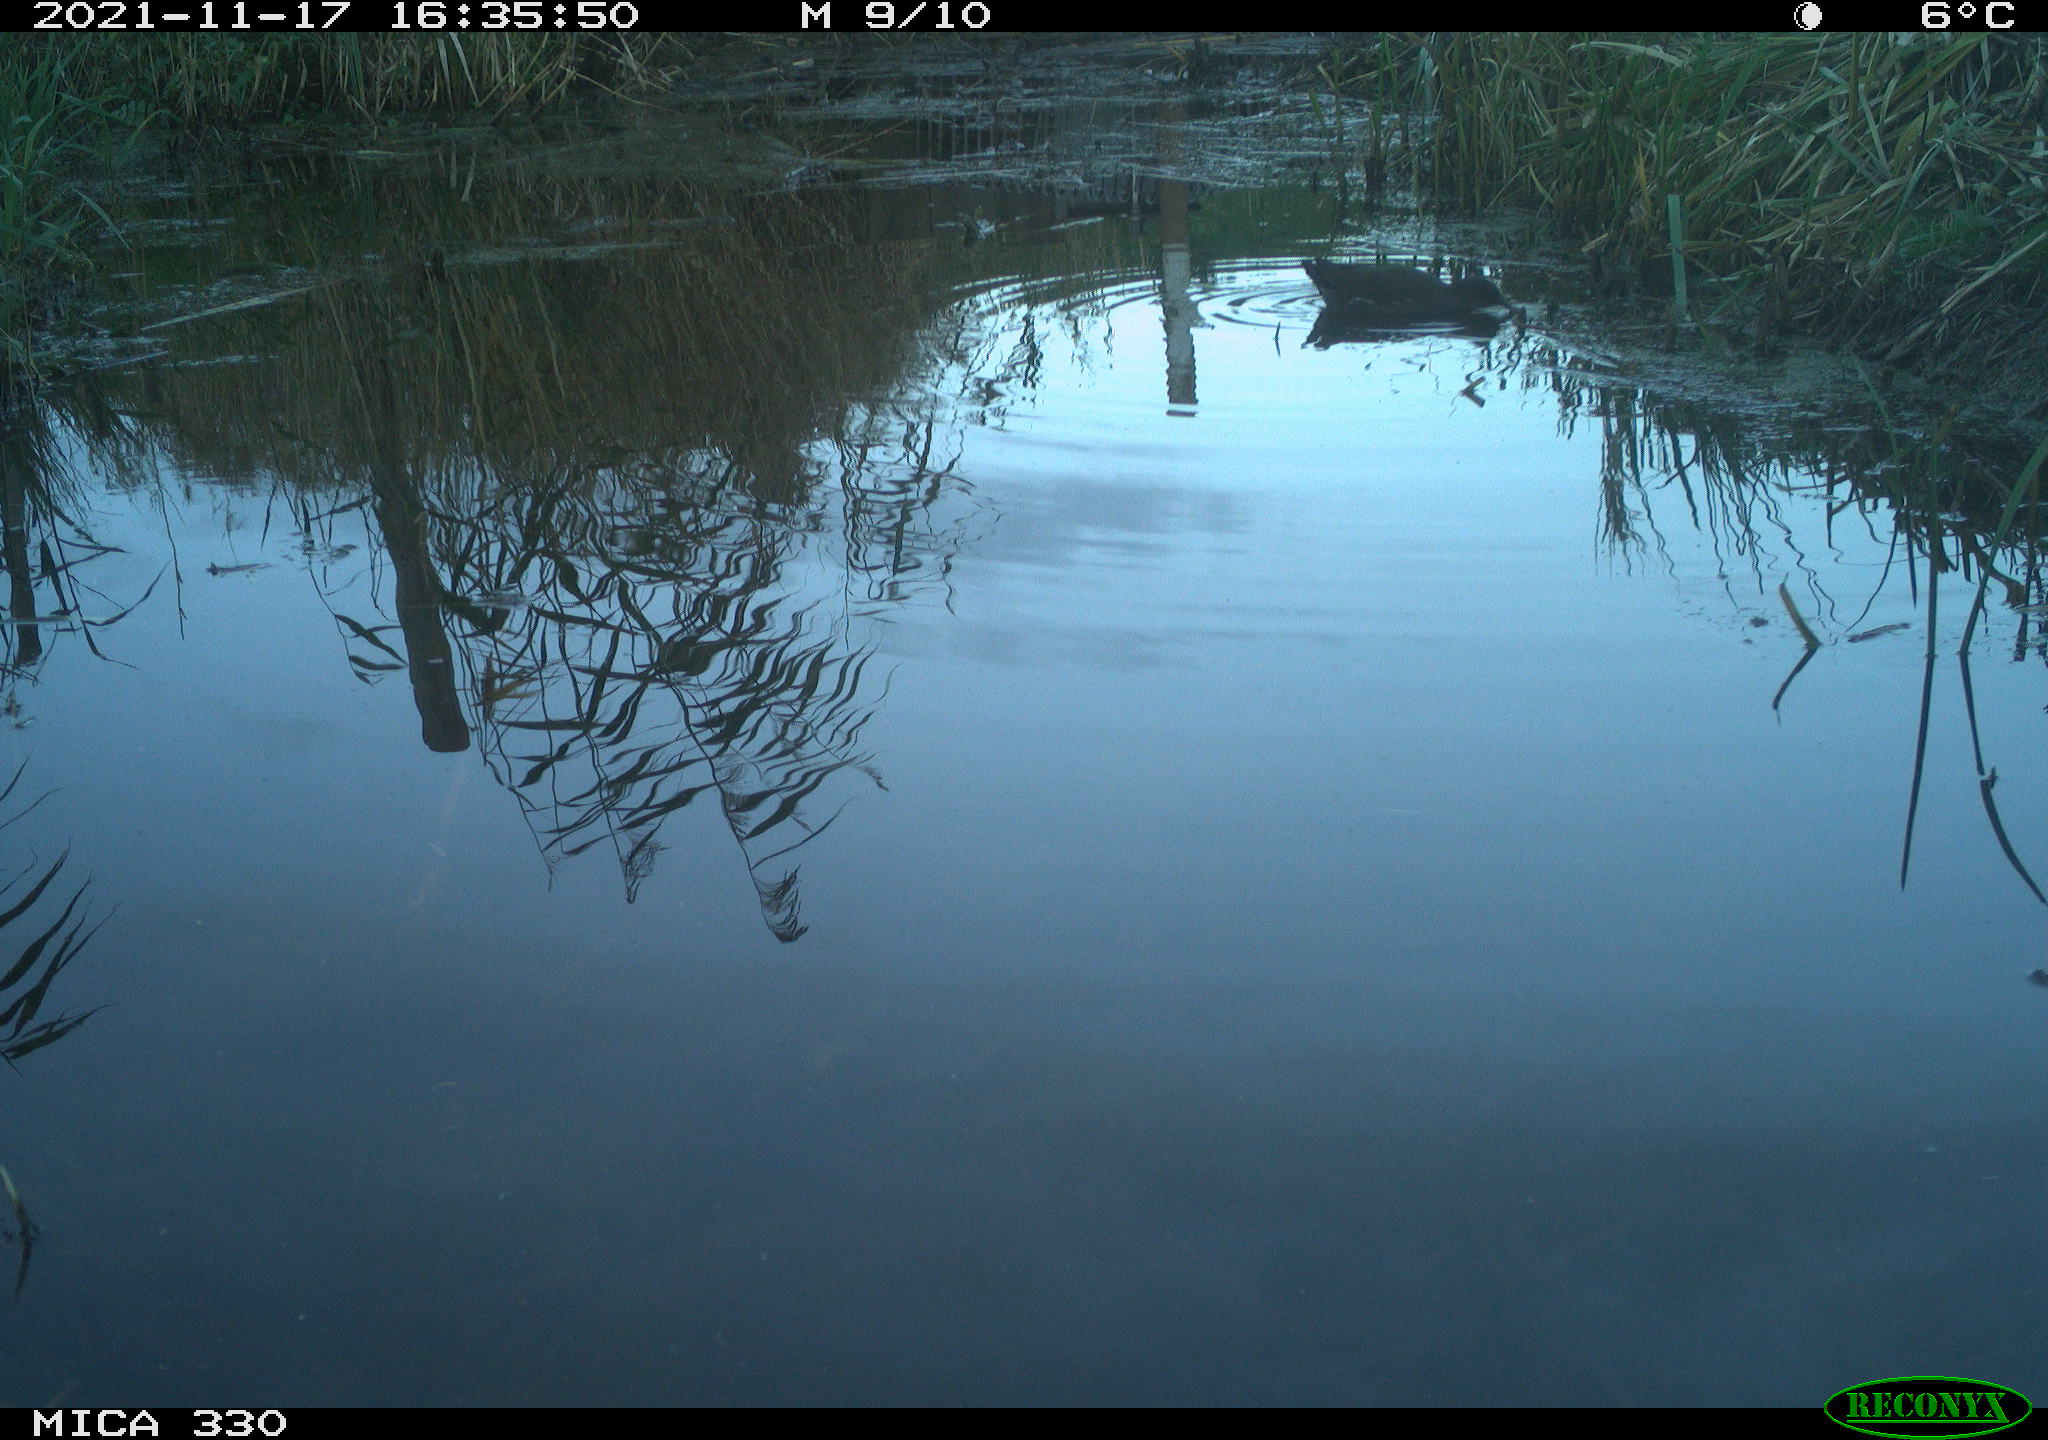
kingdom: Animalia
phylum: Chordata
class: Aves
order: Gruiformes
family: Rallidae
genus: Gallinula
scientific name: Gallinula chloropus
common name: Common moorhen
